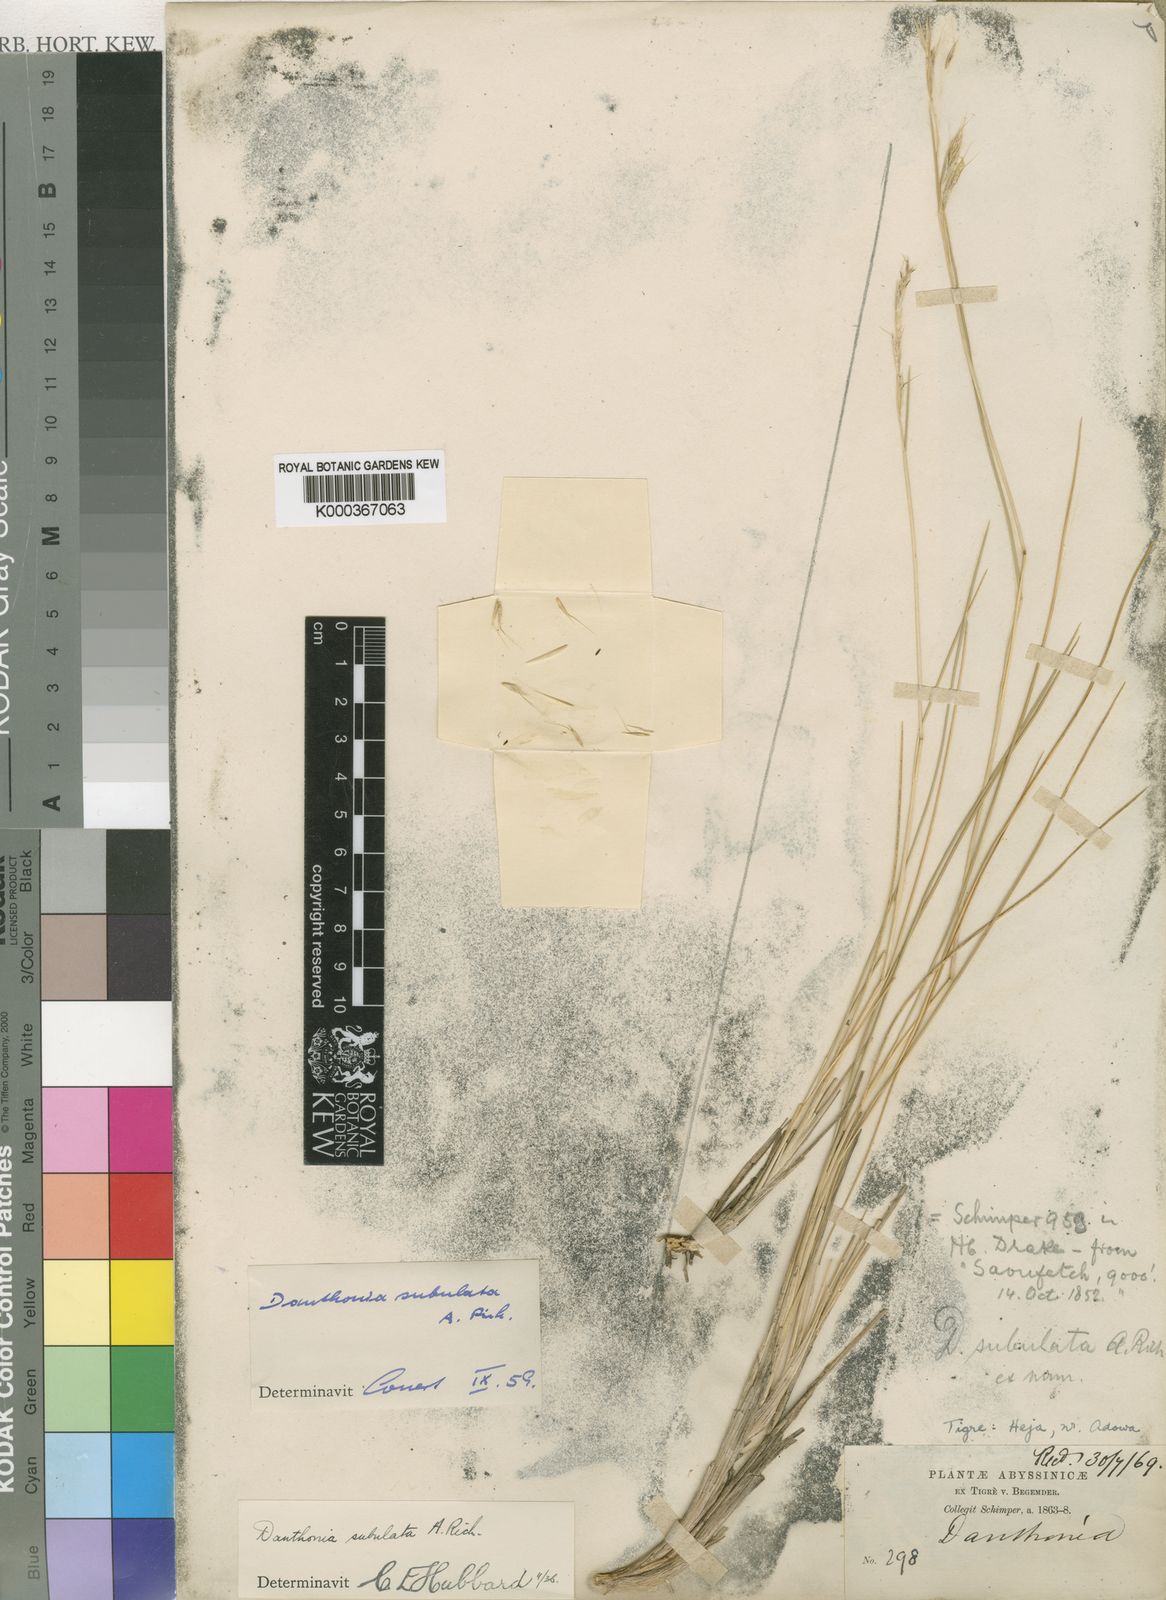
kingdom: Plantae
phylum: Tracheophyta
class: Liliopsida
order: Poales
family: Poaceae
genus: Tenaxia
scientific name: Tenaxia subulata
